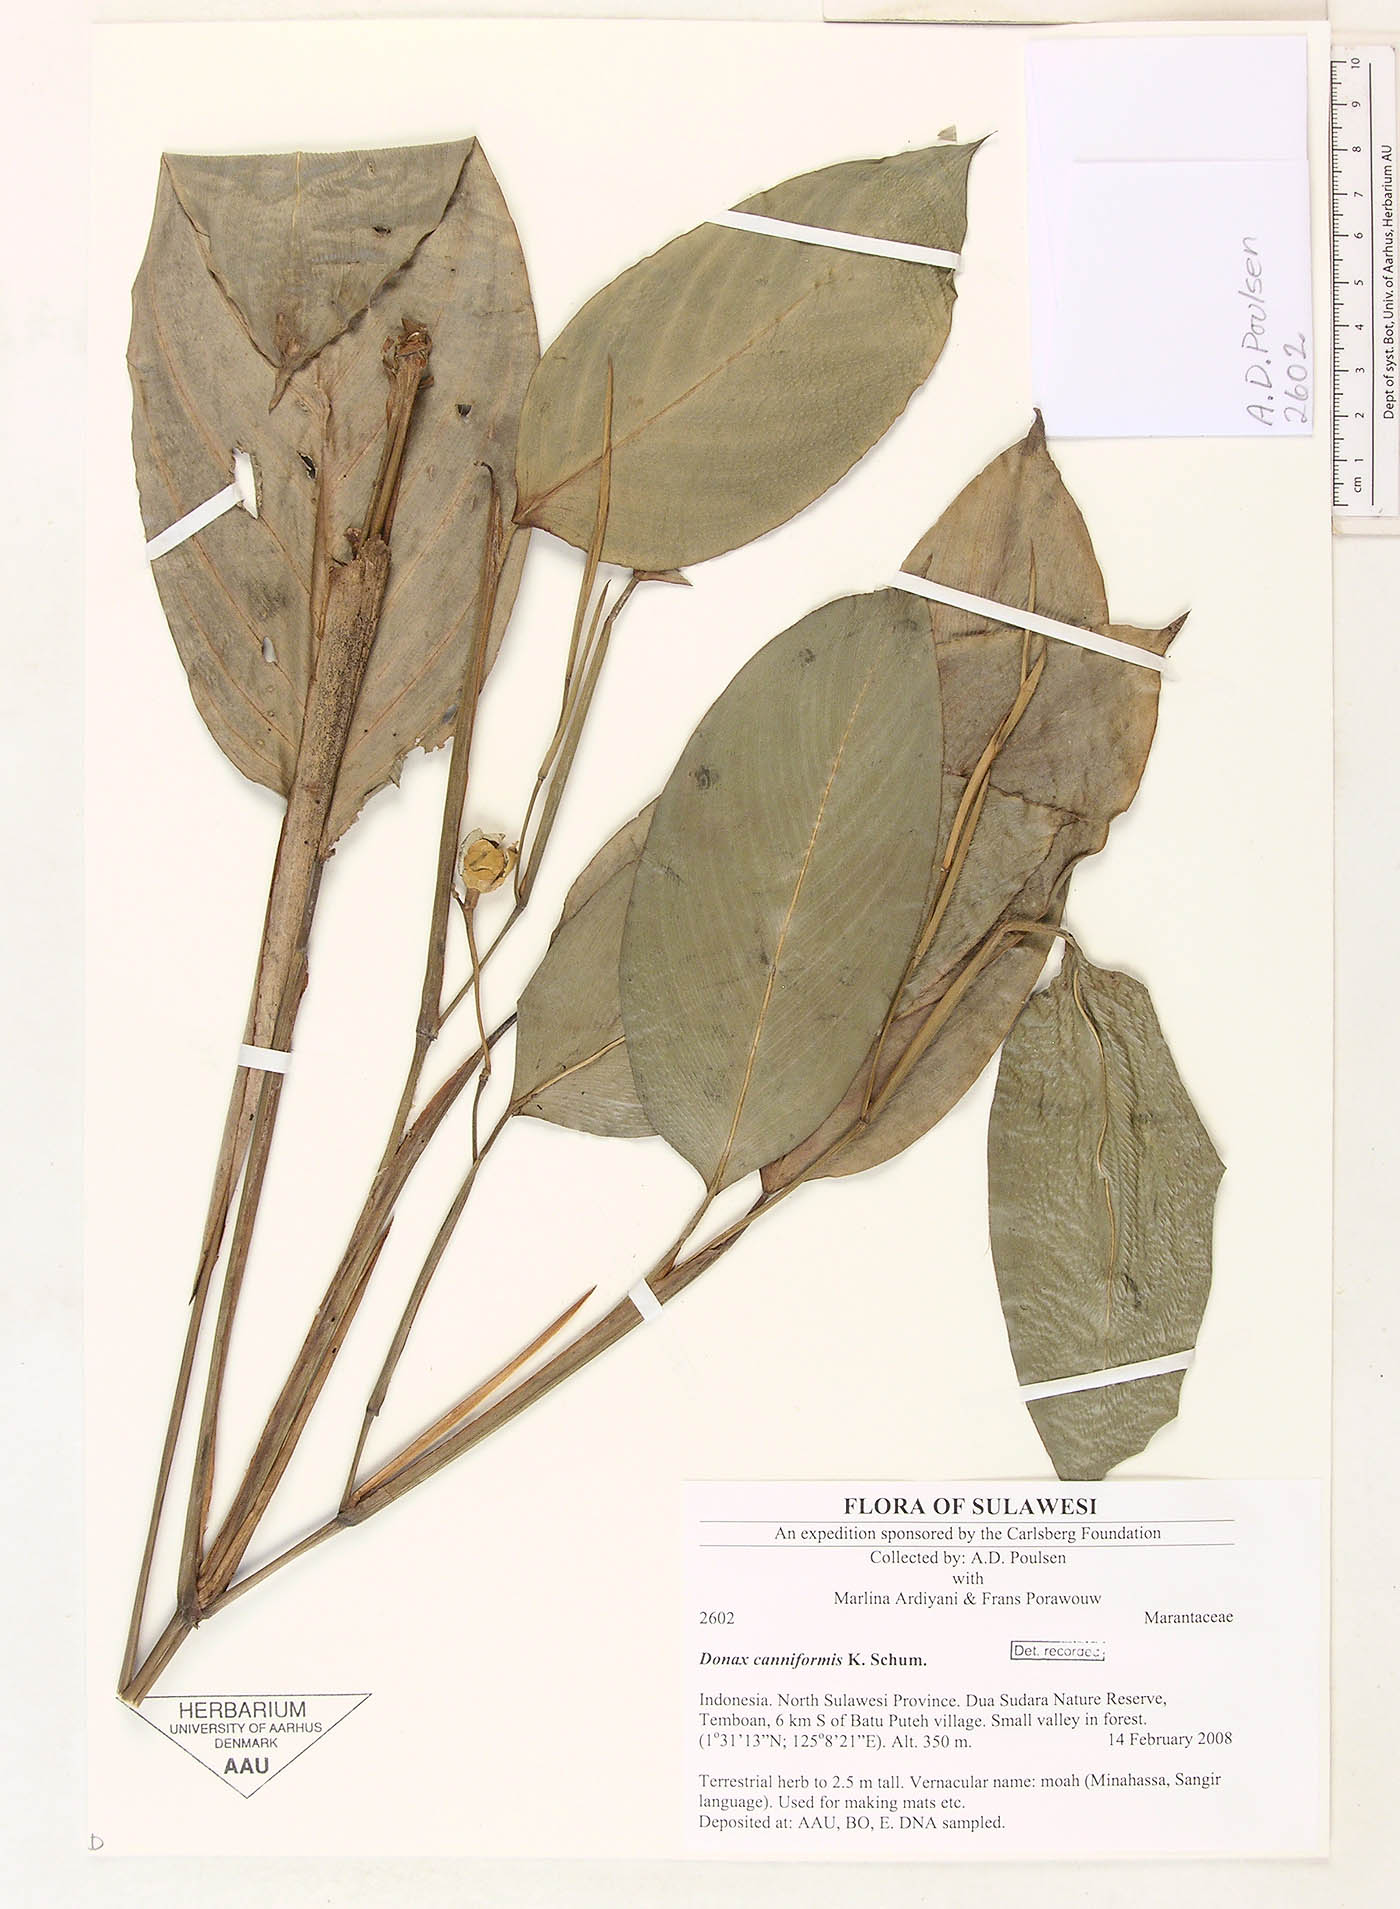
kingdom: Plantae
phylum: Tracheophyta
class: Liliopsida
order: Zingiberales
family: Marantaceae
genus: Donax
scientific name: Donax canniformis
